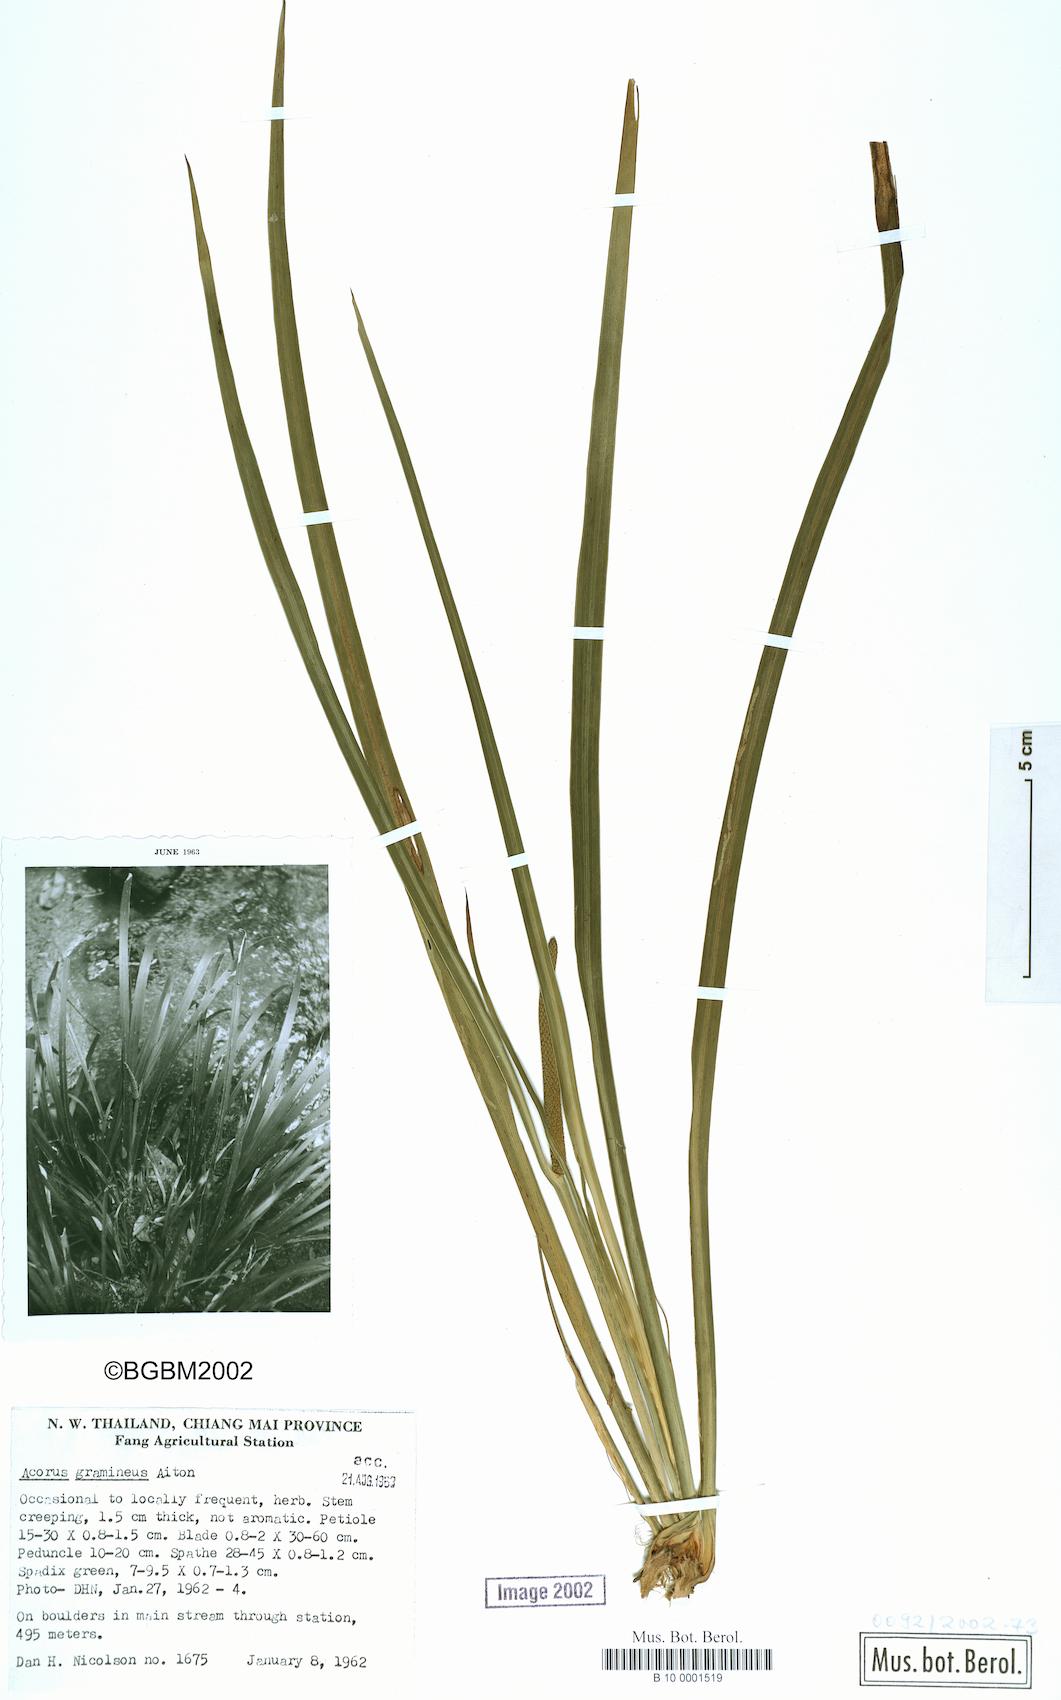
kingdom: Plantae
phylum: Tracheophyta
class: Liliopsida
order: Acorales
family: Acoraceae
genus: Acorus
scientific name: Acorus gramineus
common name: Slender sweet-flag
